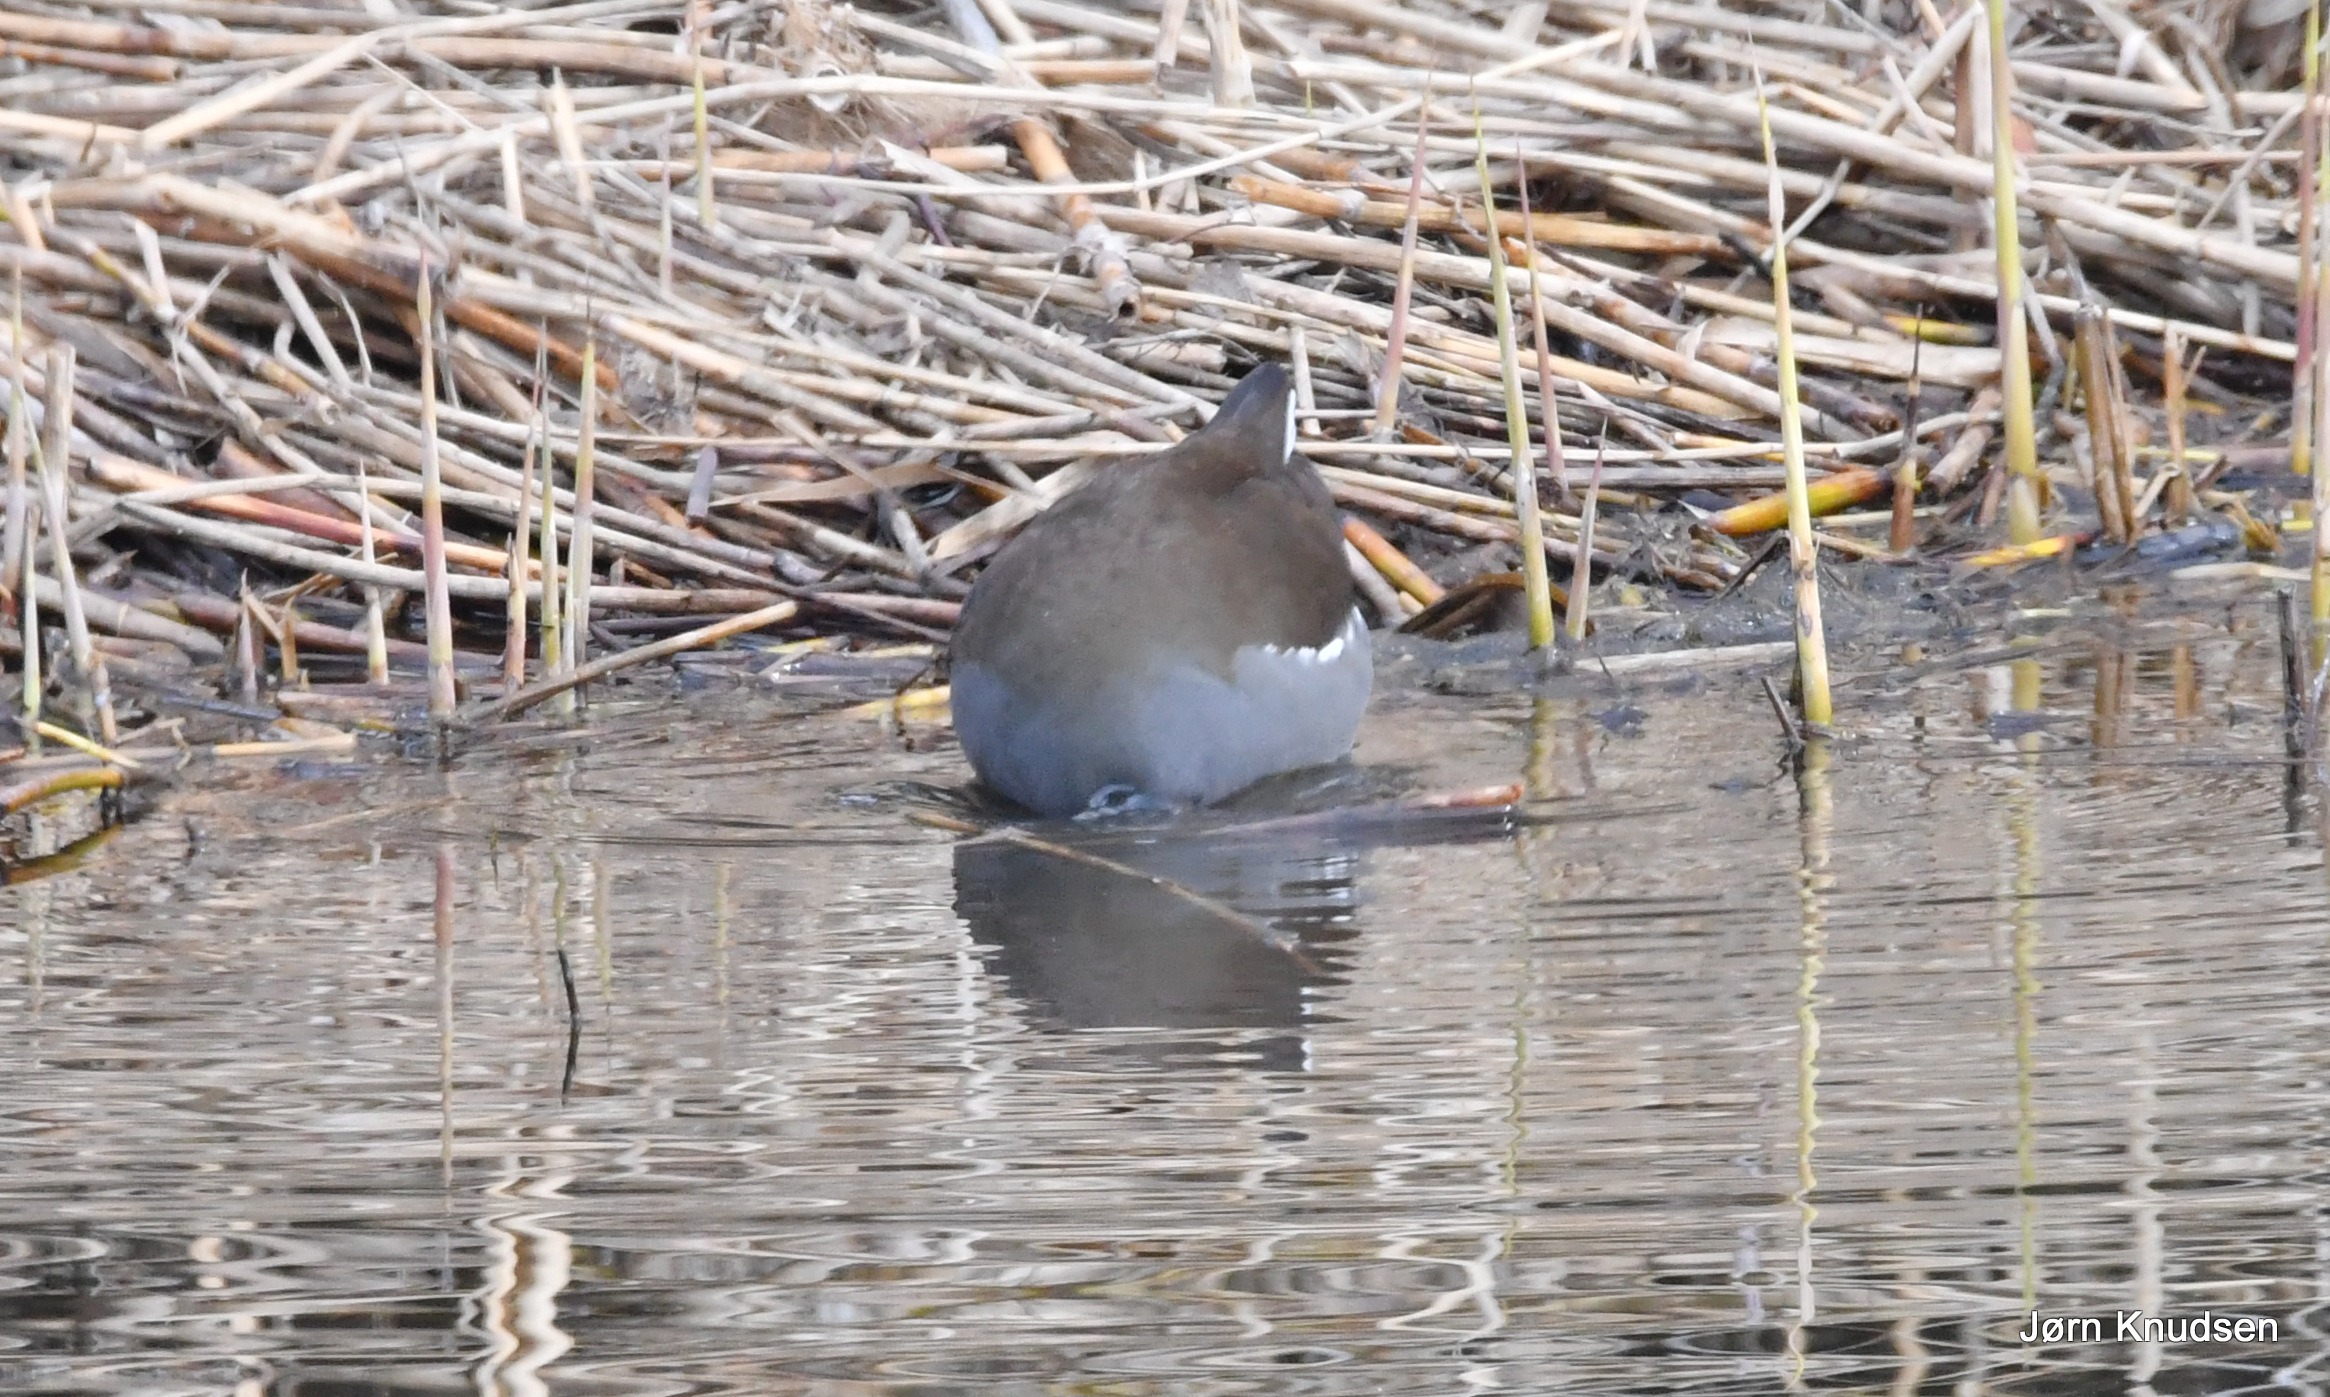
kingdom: Animalia
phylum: Chordata
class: Aves
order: Gruiformes
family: Rallidae
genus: Gallinula
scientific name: Gallinula chloropus
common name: Grønbenet rørhøne
